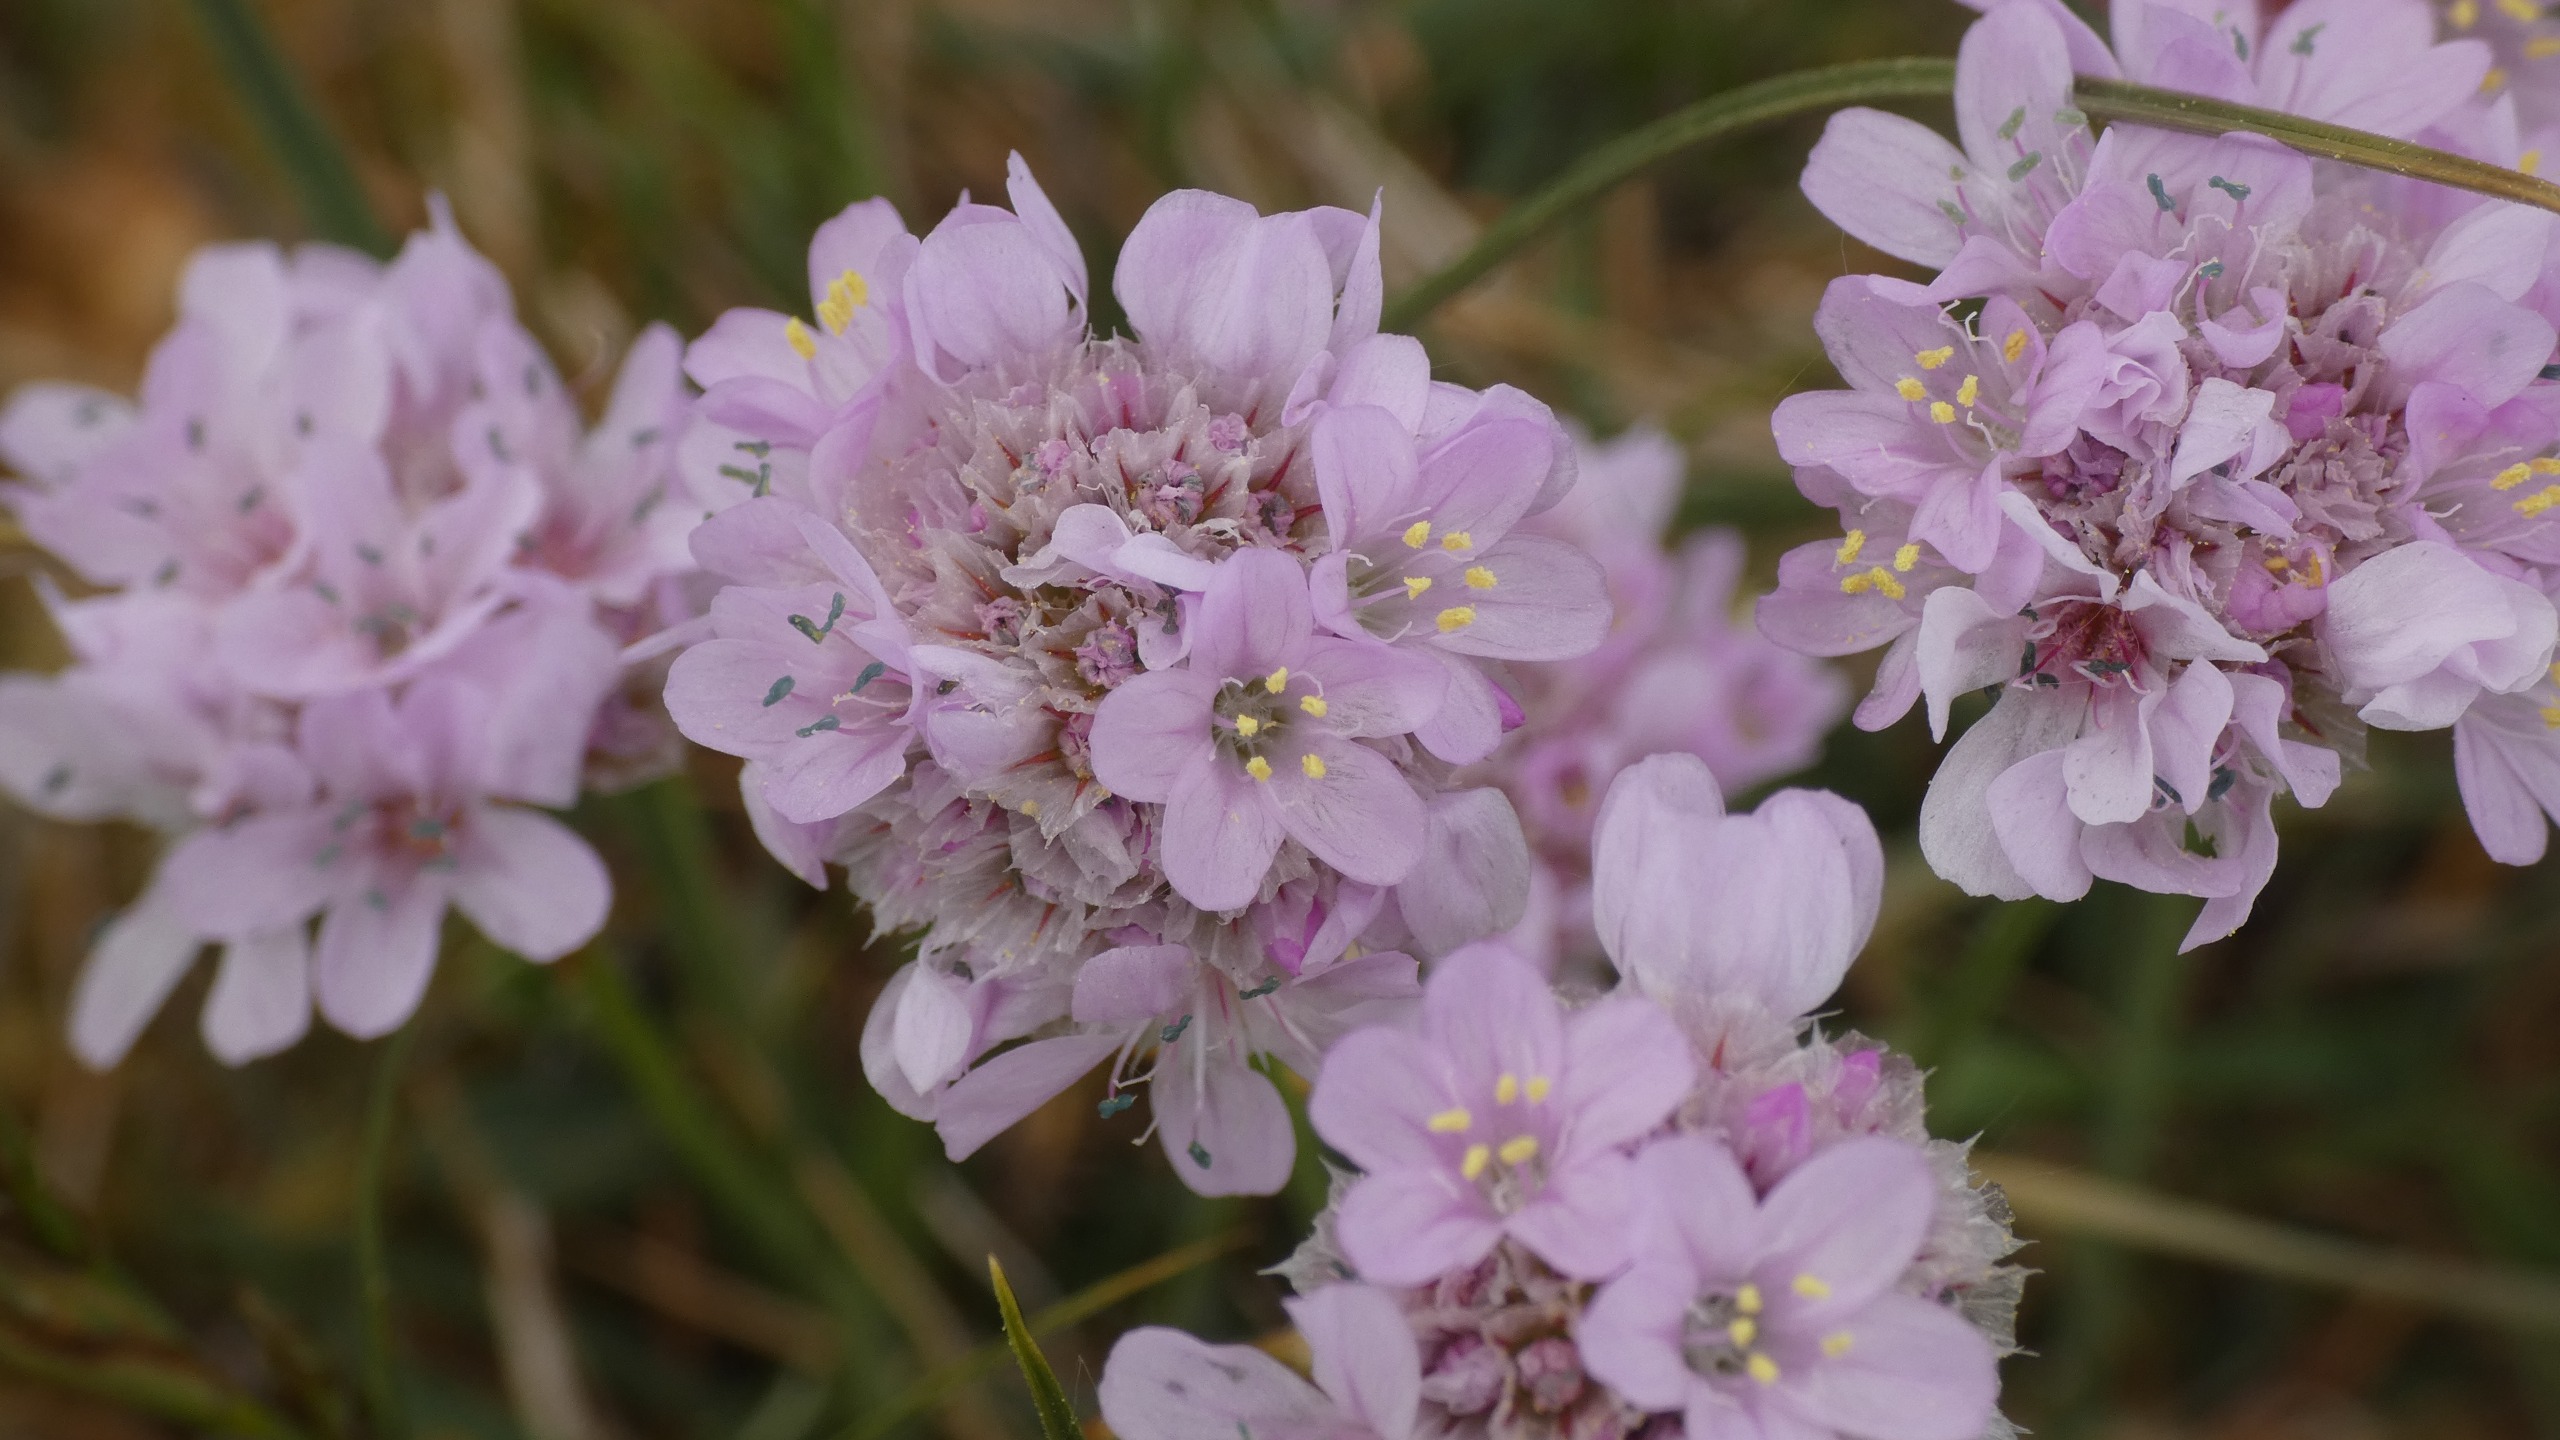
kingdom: Plantae
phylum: Tracheophyta
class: Magnoliopsida
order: Caryophyllales
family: Plumbaginaceae
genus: Armeria
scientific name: Armeria maritima
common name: Engelskgræs
